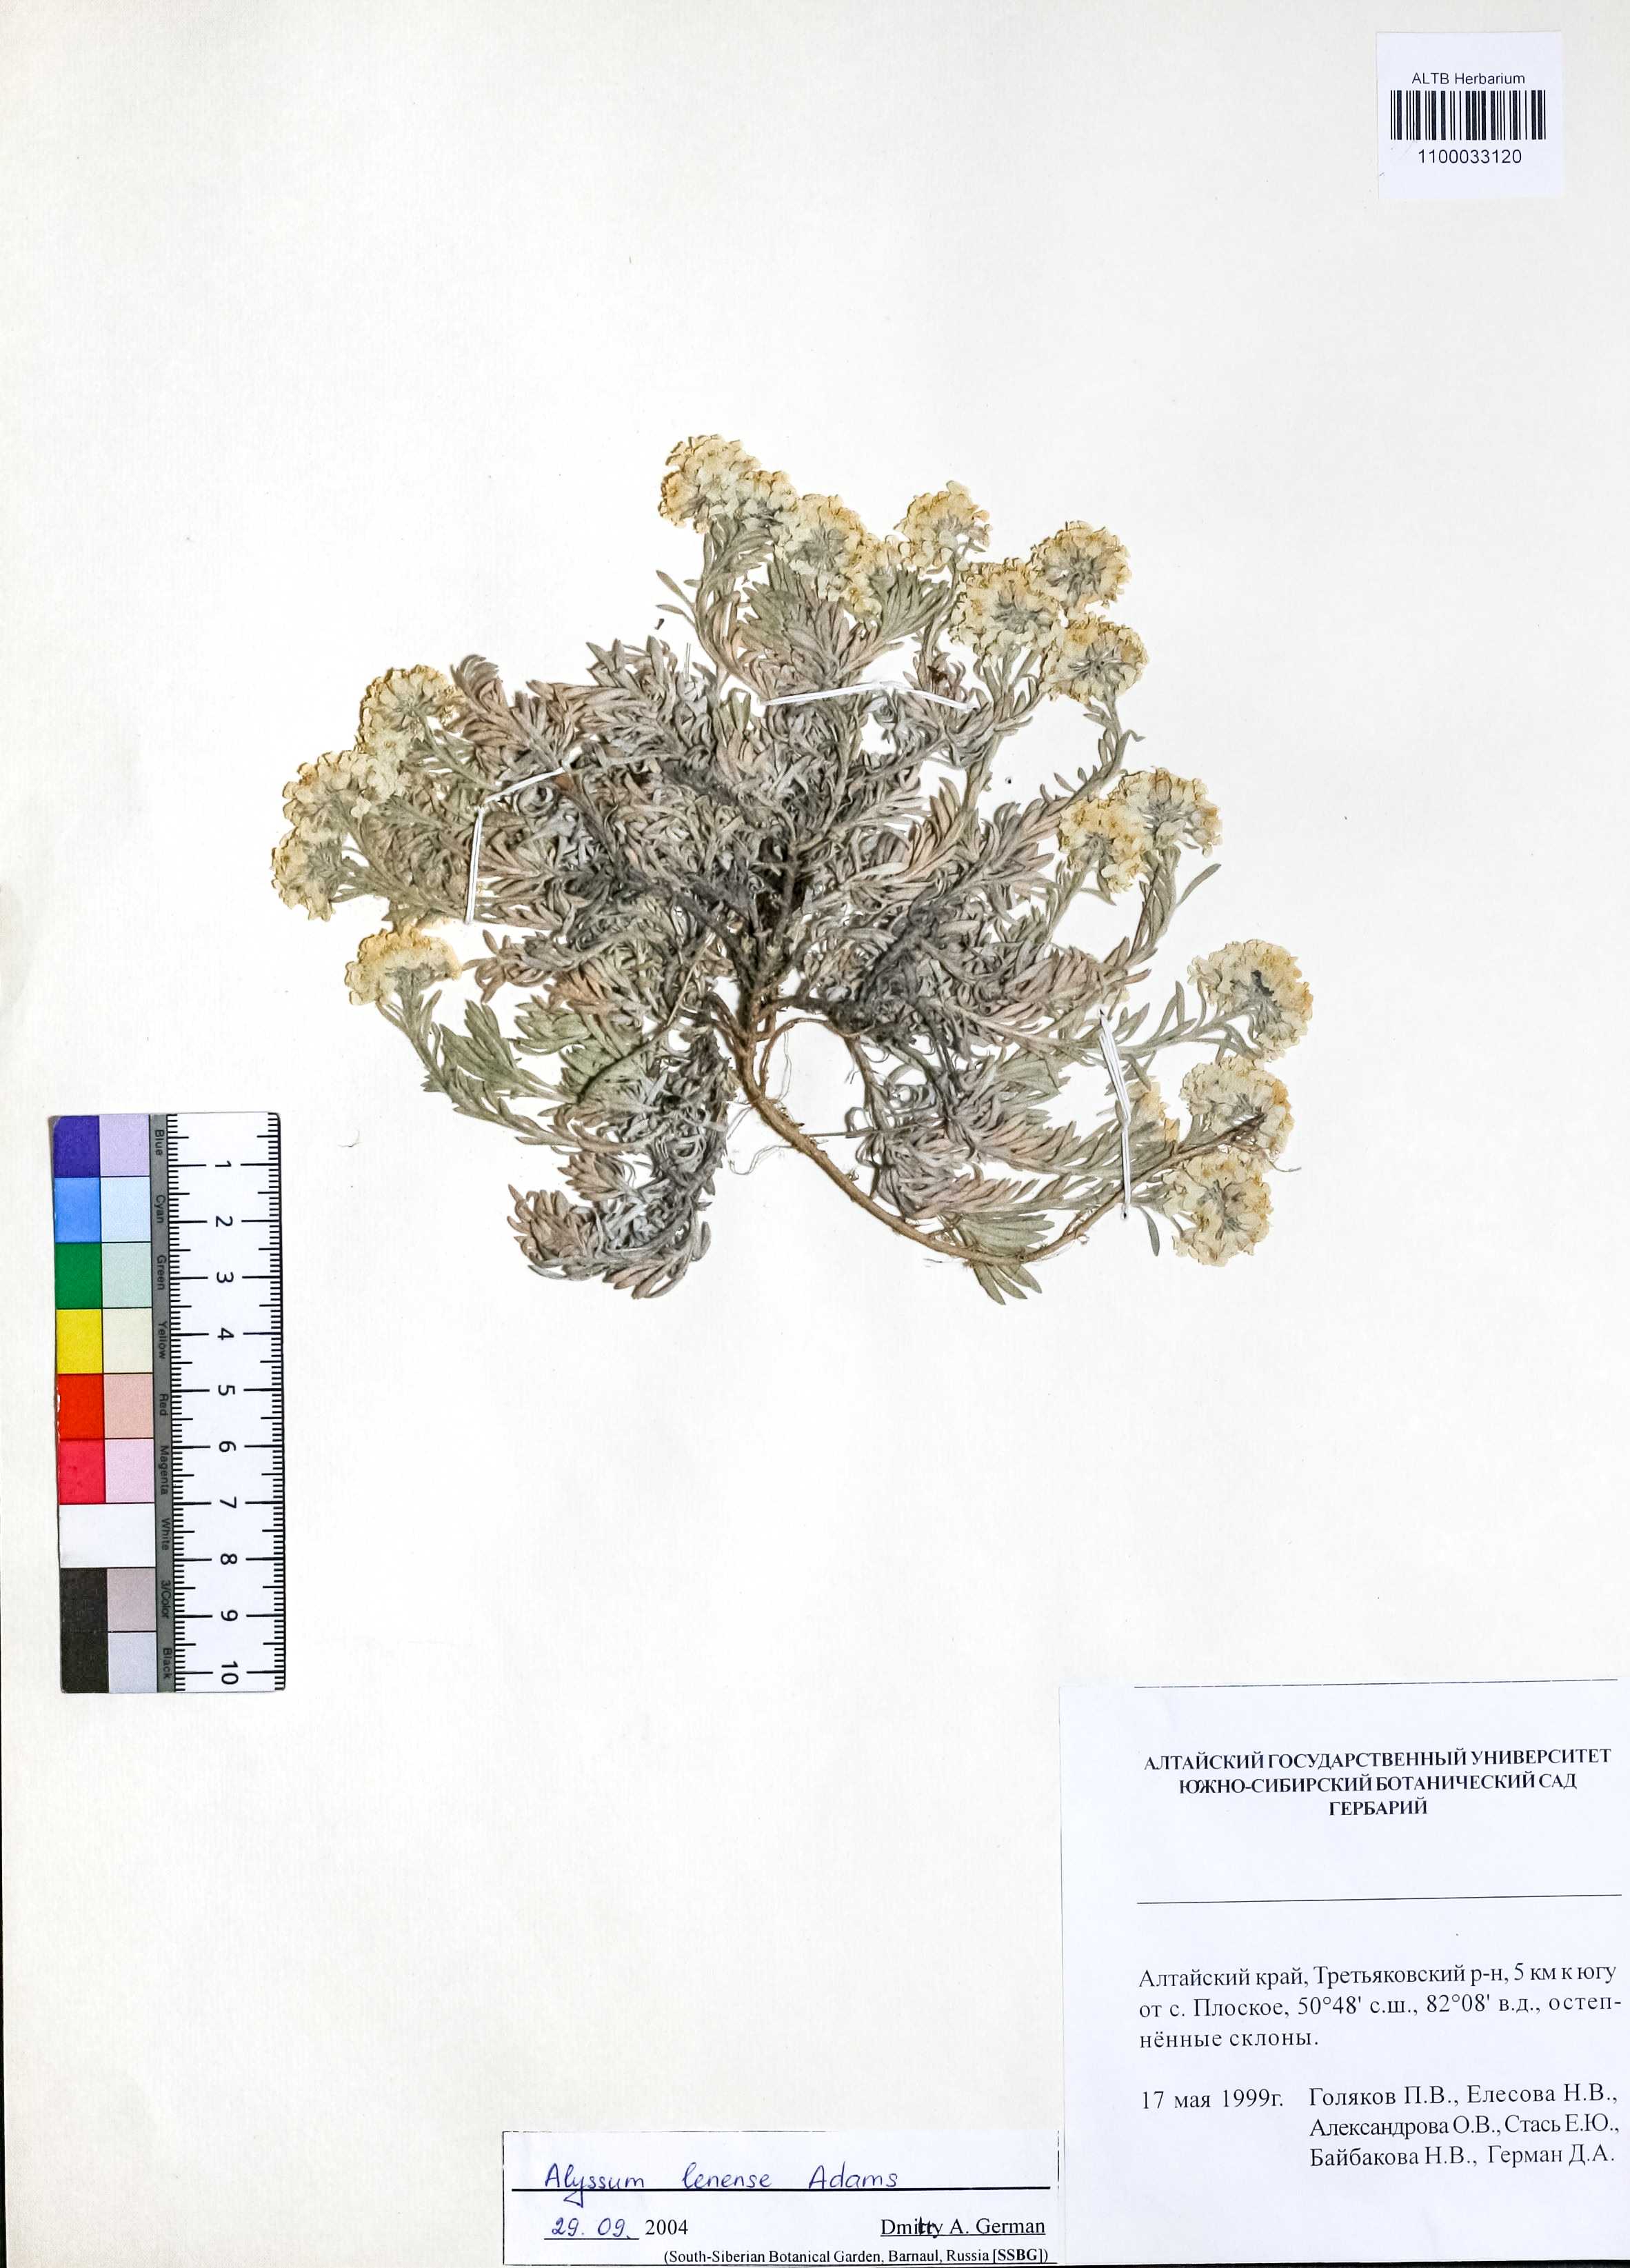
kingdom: Plantae
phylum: Tracheophyta
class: Magnoliopsida
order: Brassicales
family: Brassicaceae
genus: Alyssum
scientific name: Alyssum lenense
